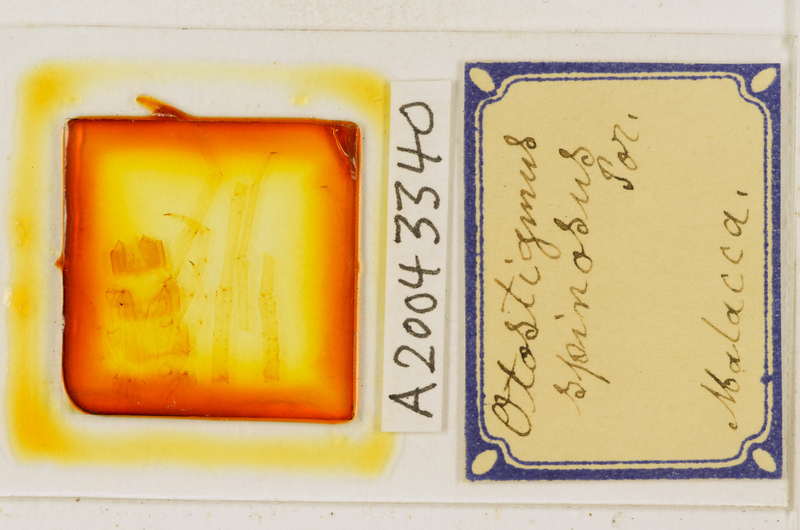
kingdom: Animalia
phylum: Arthropoda
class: Chilopoda
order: Scolopendromorpha
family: Scolopendridae
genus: Otostigmus
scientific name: Otostigmus rugulosus
